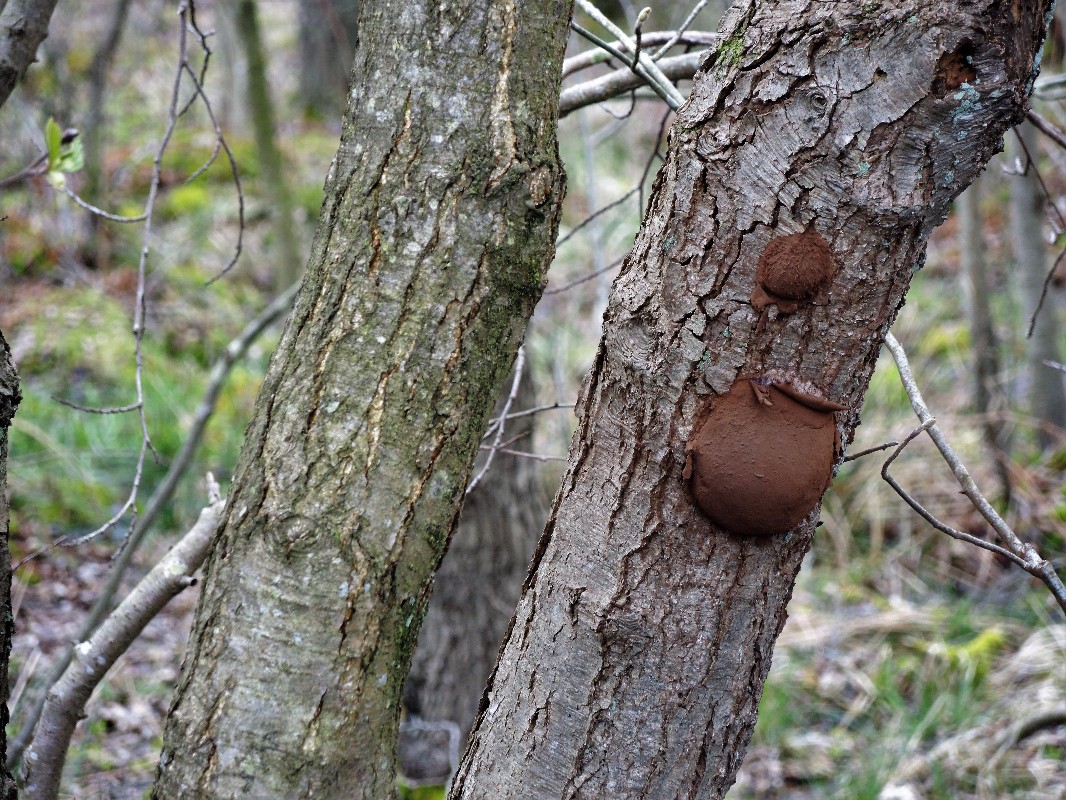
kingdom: Protozoa
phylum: Mycetozoa
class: Myxomycetes
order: Cribrariales
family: Tubiferaceae
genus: Reticularia
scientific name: Reticularia lycoperdon
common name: skinnende støvpude
